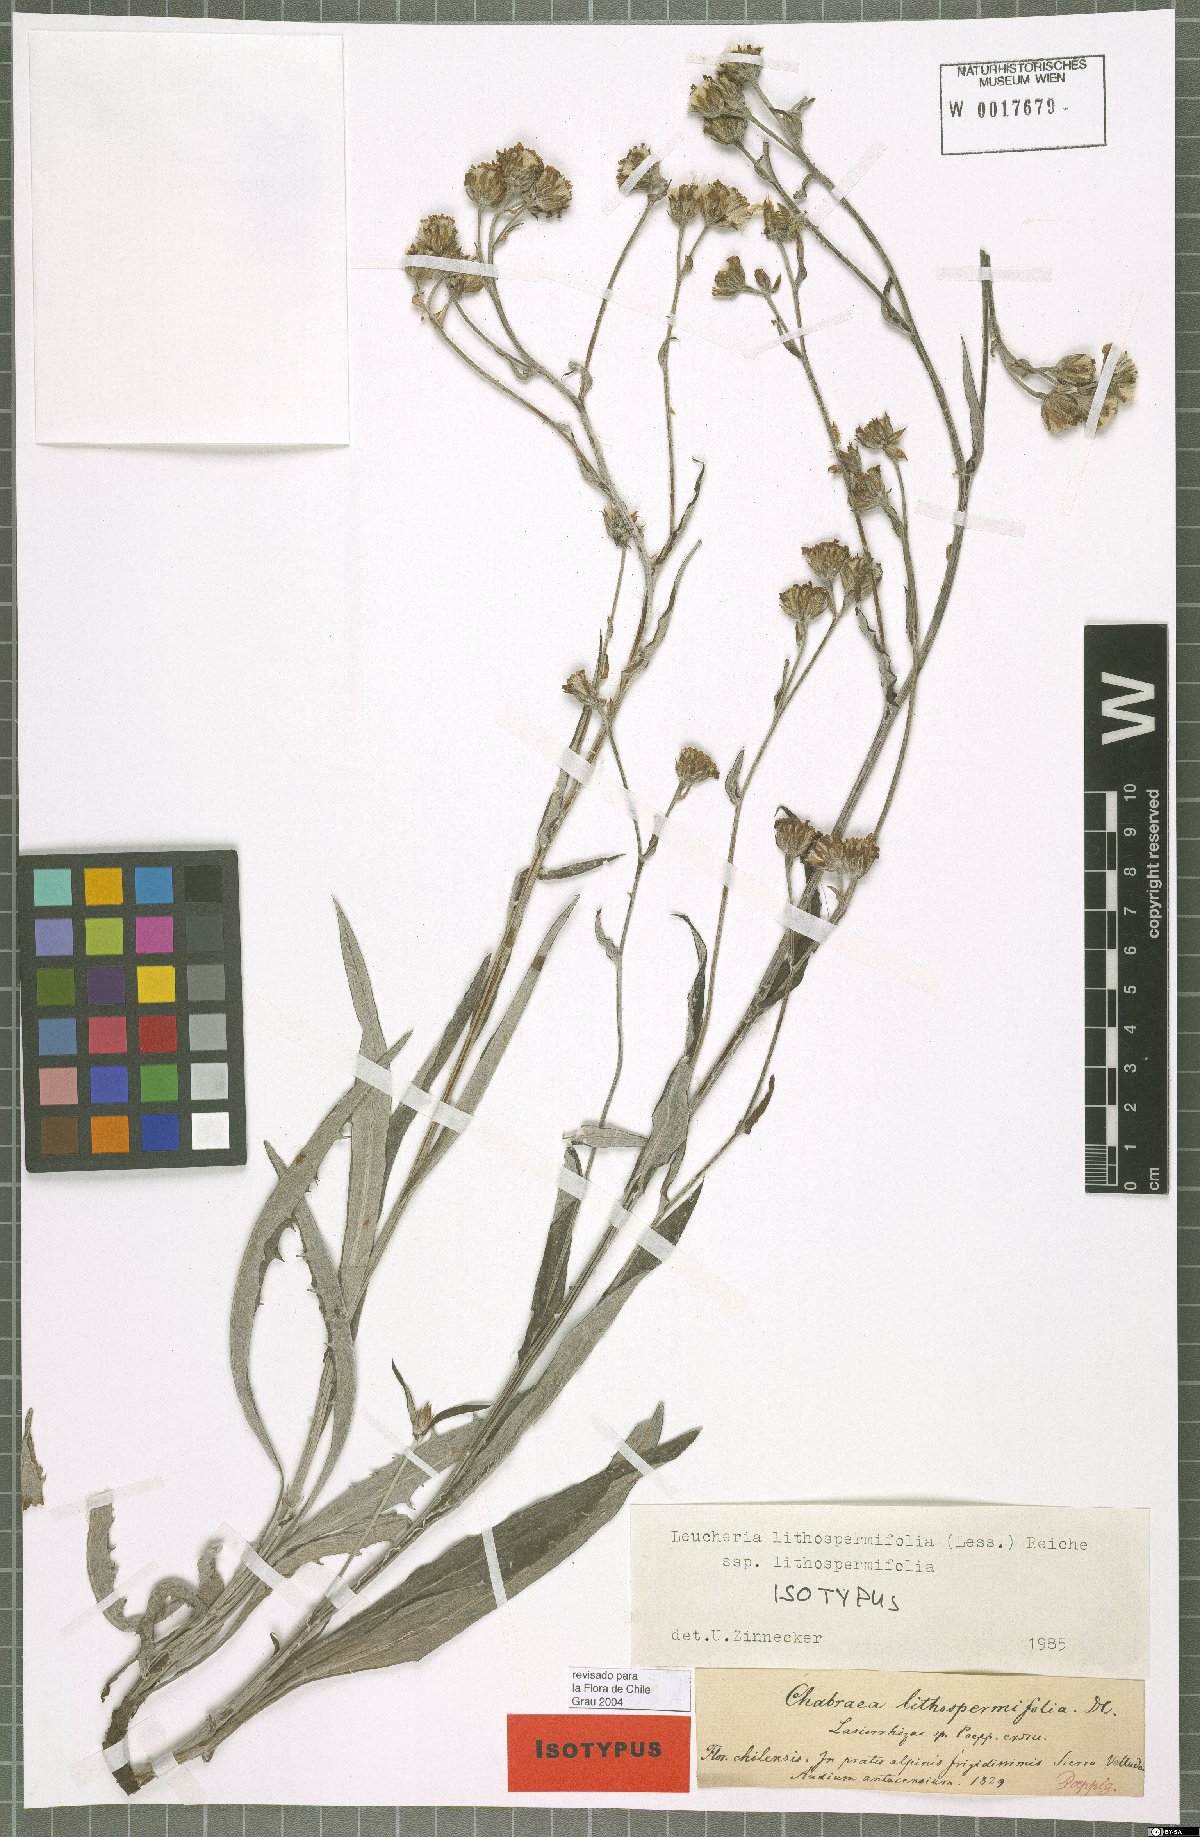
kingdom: Plantae
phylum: Tracheophyta
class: Magnoliopsida
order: Asterales
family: Asteraceae
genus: Leucheria
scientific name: Leucheria lithospermifolia
